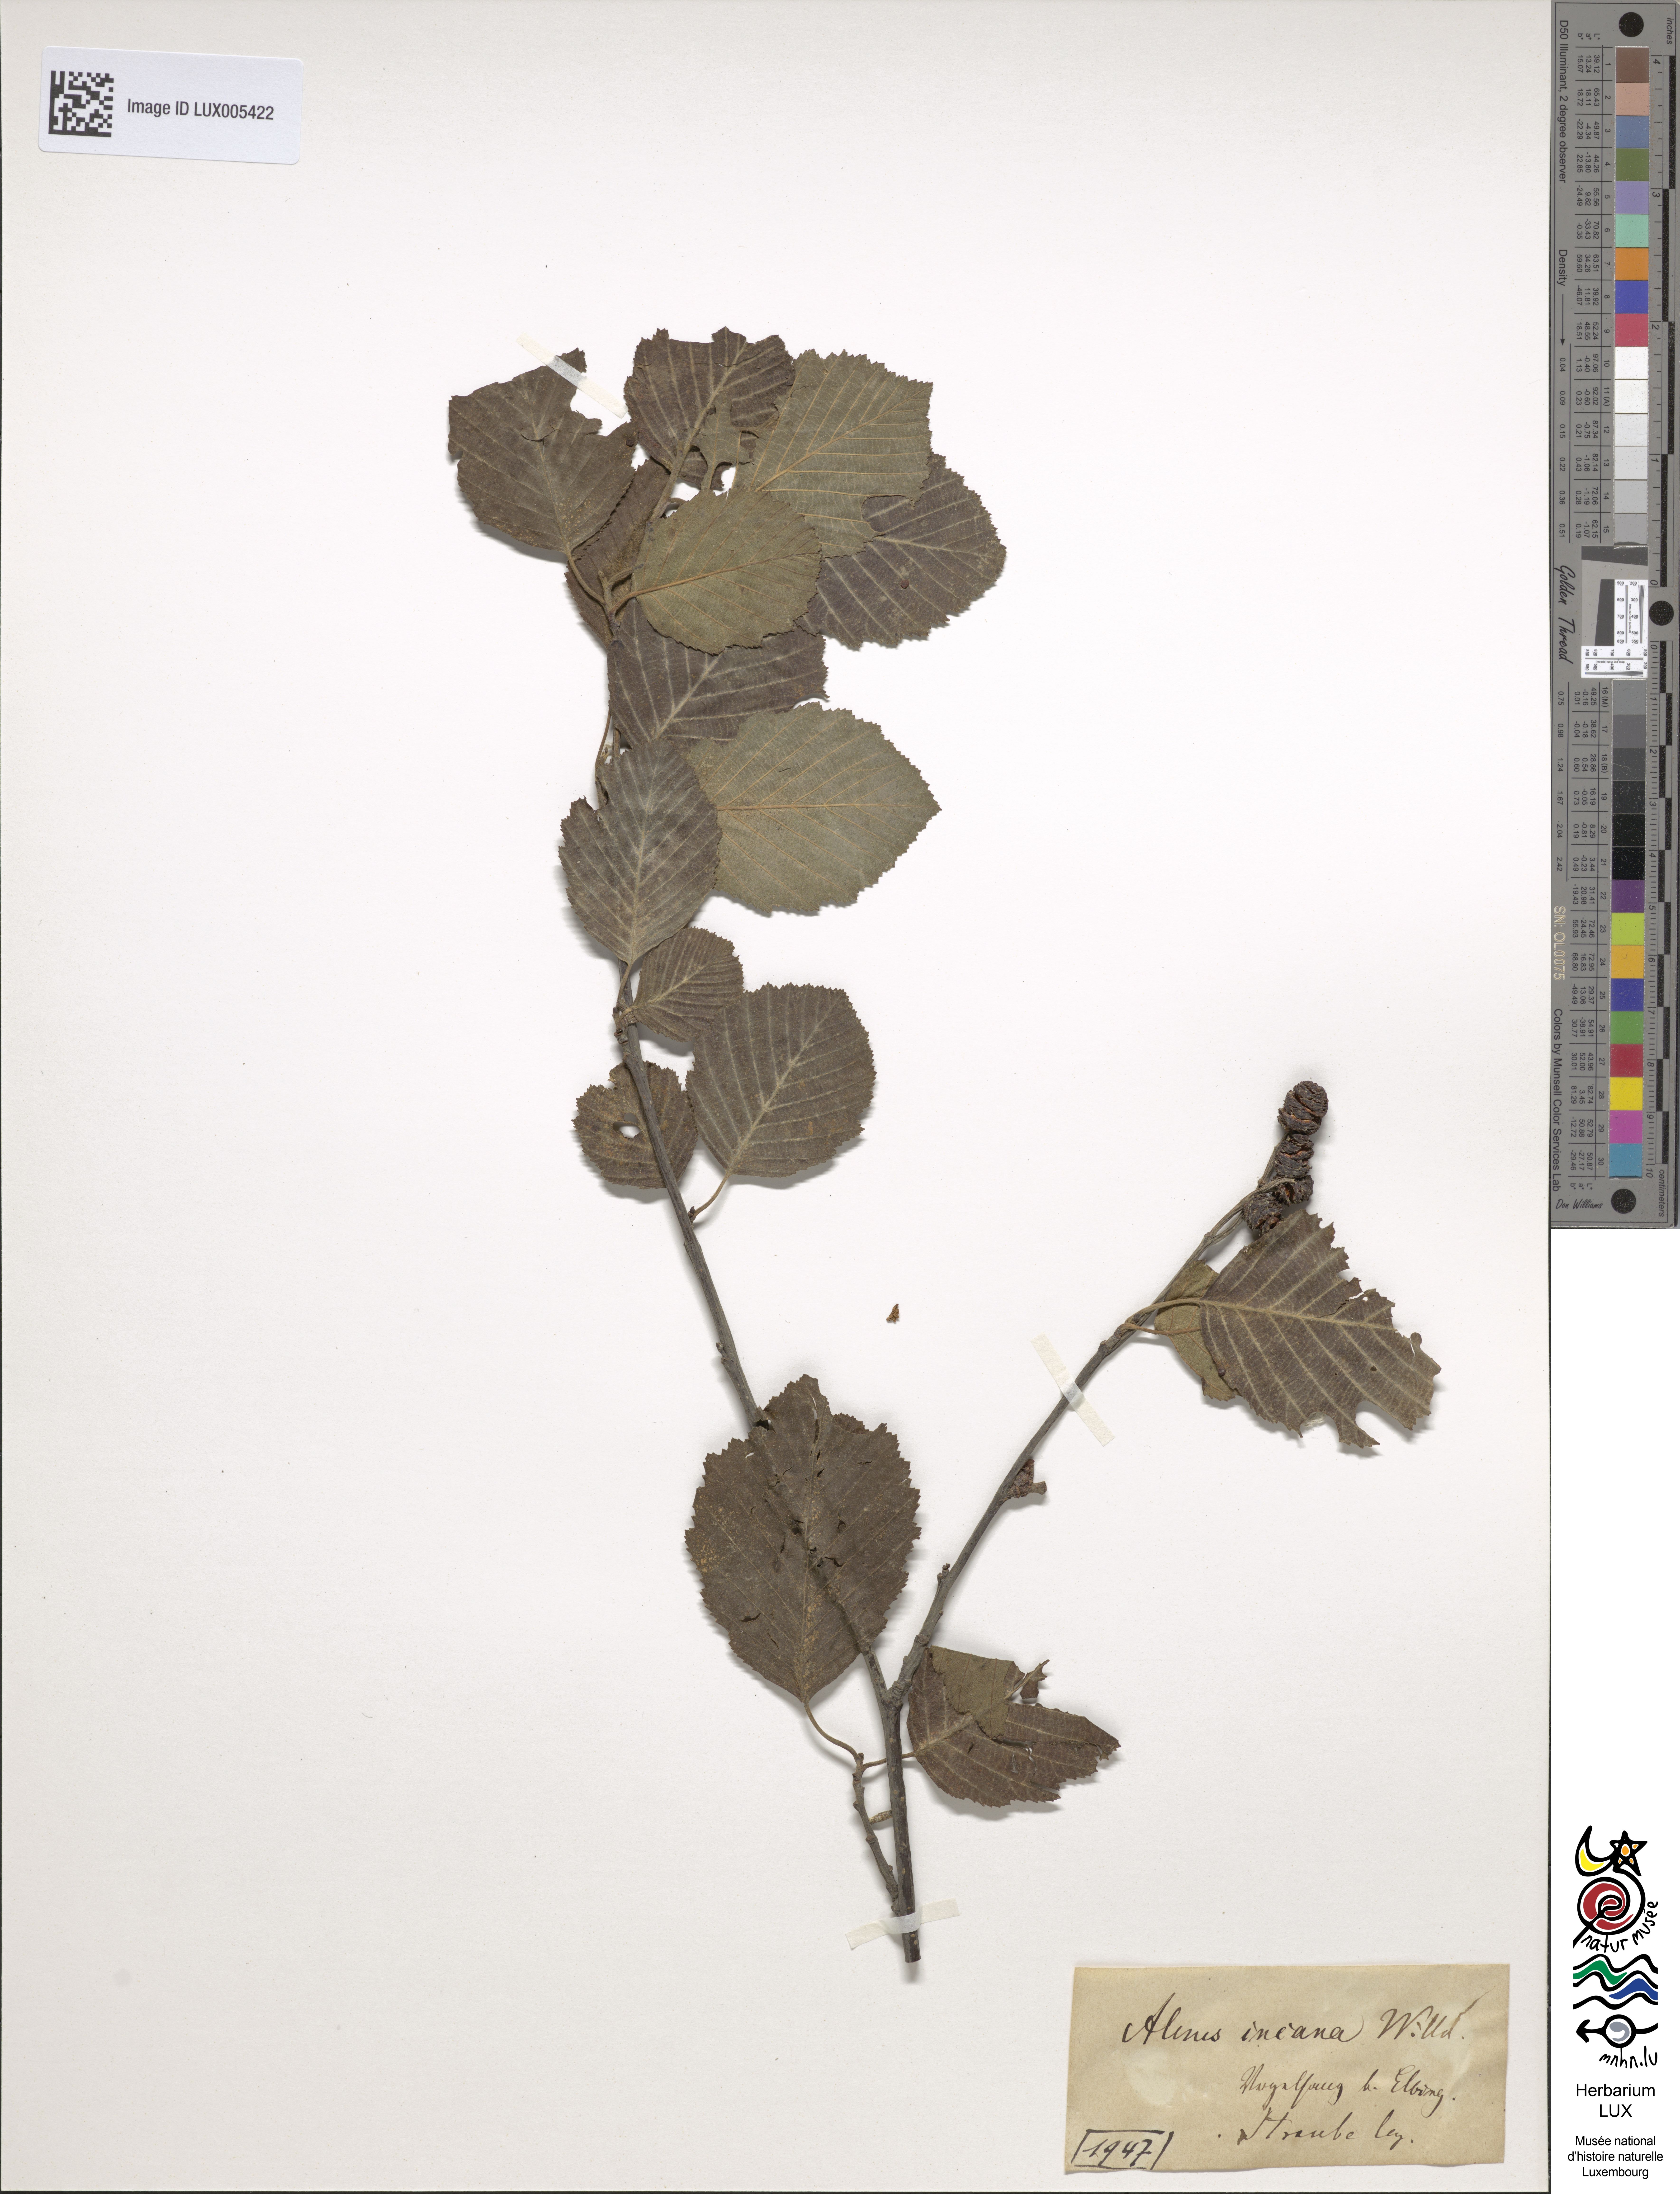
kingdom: Plantae
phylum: Tracheophyta
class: Magnoliopsida
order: Fagales
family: Betulaceae
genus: Alnus
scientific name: Alnus incana
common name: Grey alder
